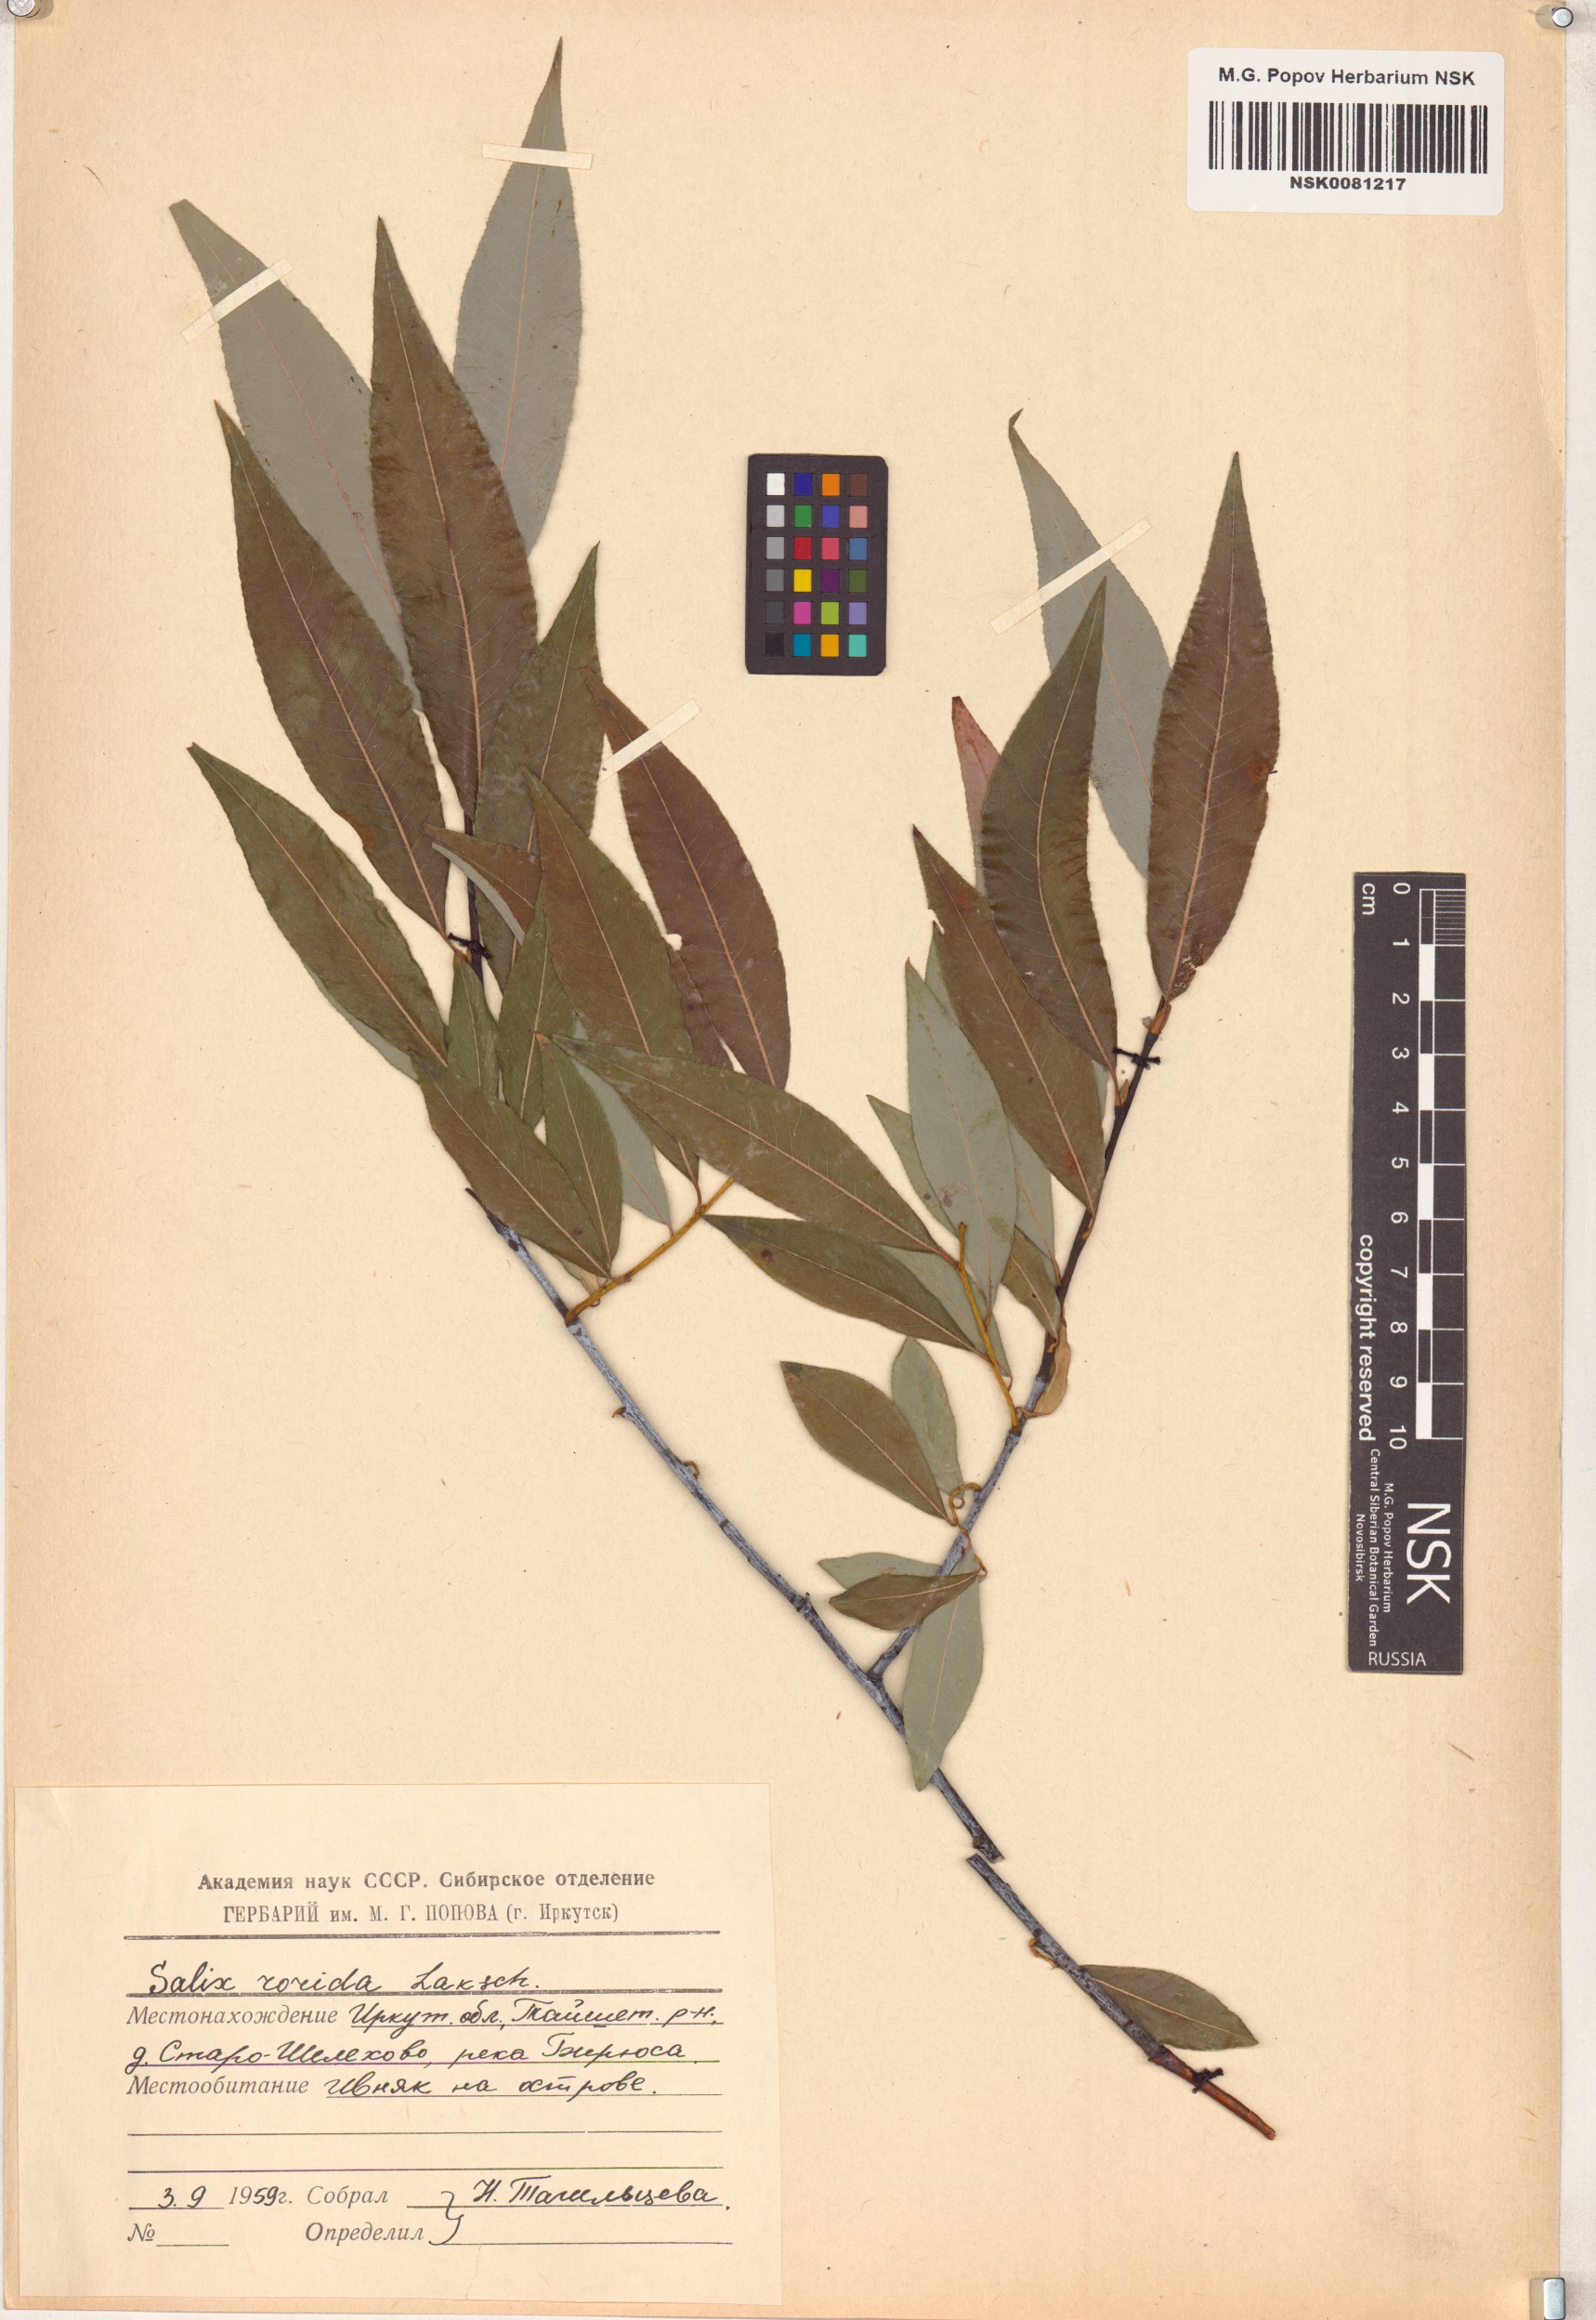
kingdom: Plantae
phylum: Tracheophyta
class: Magnoliopsida
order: Malpighiales
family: Salicaceae
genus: Salix
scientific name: Salix rorida
